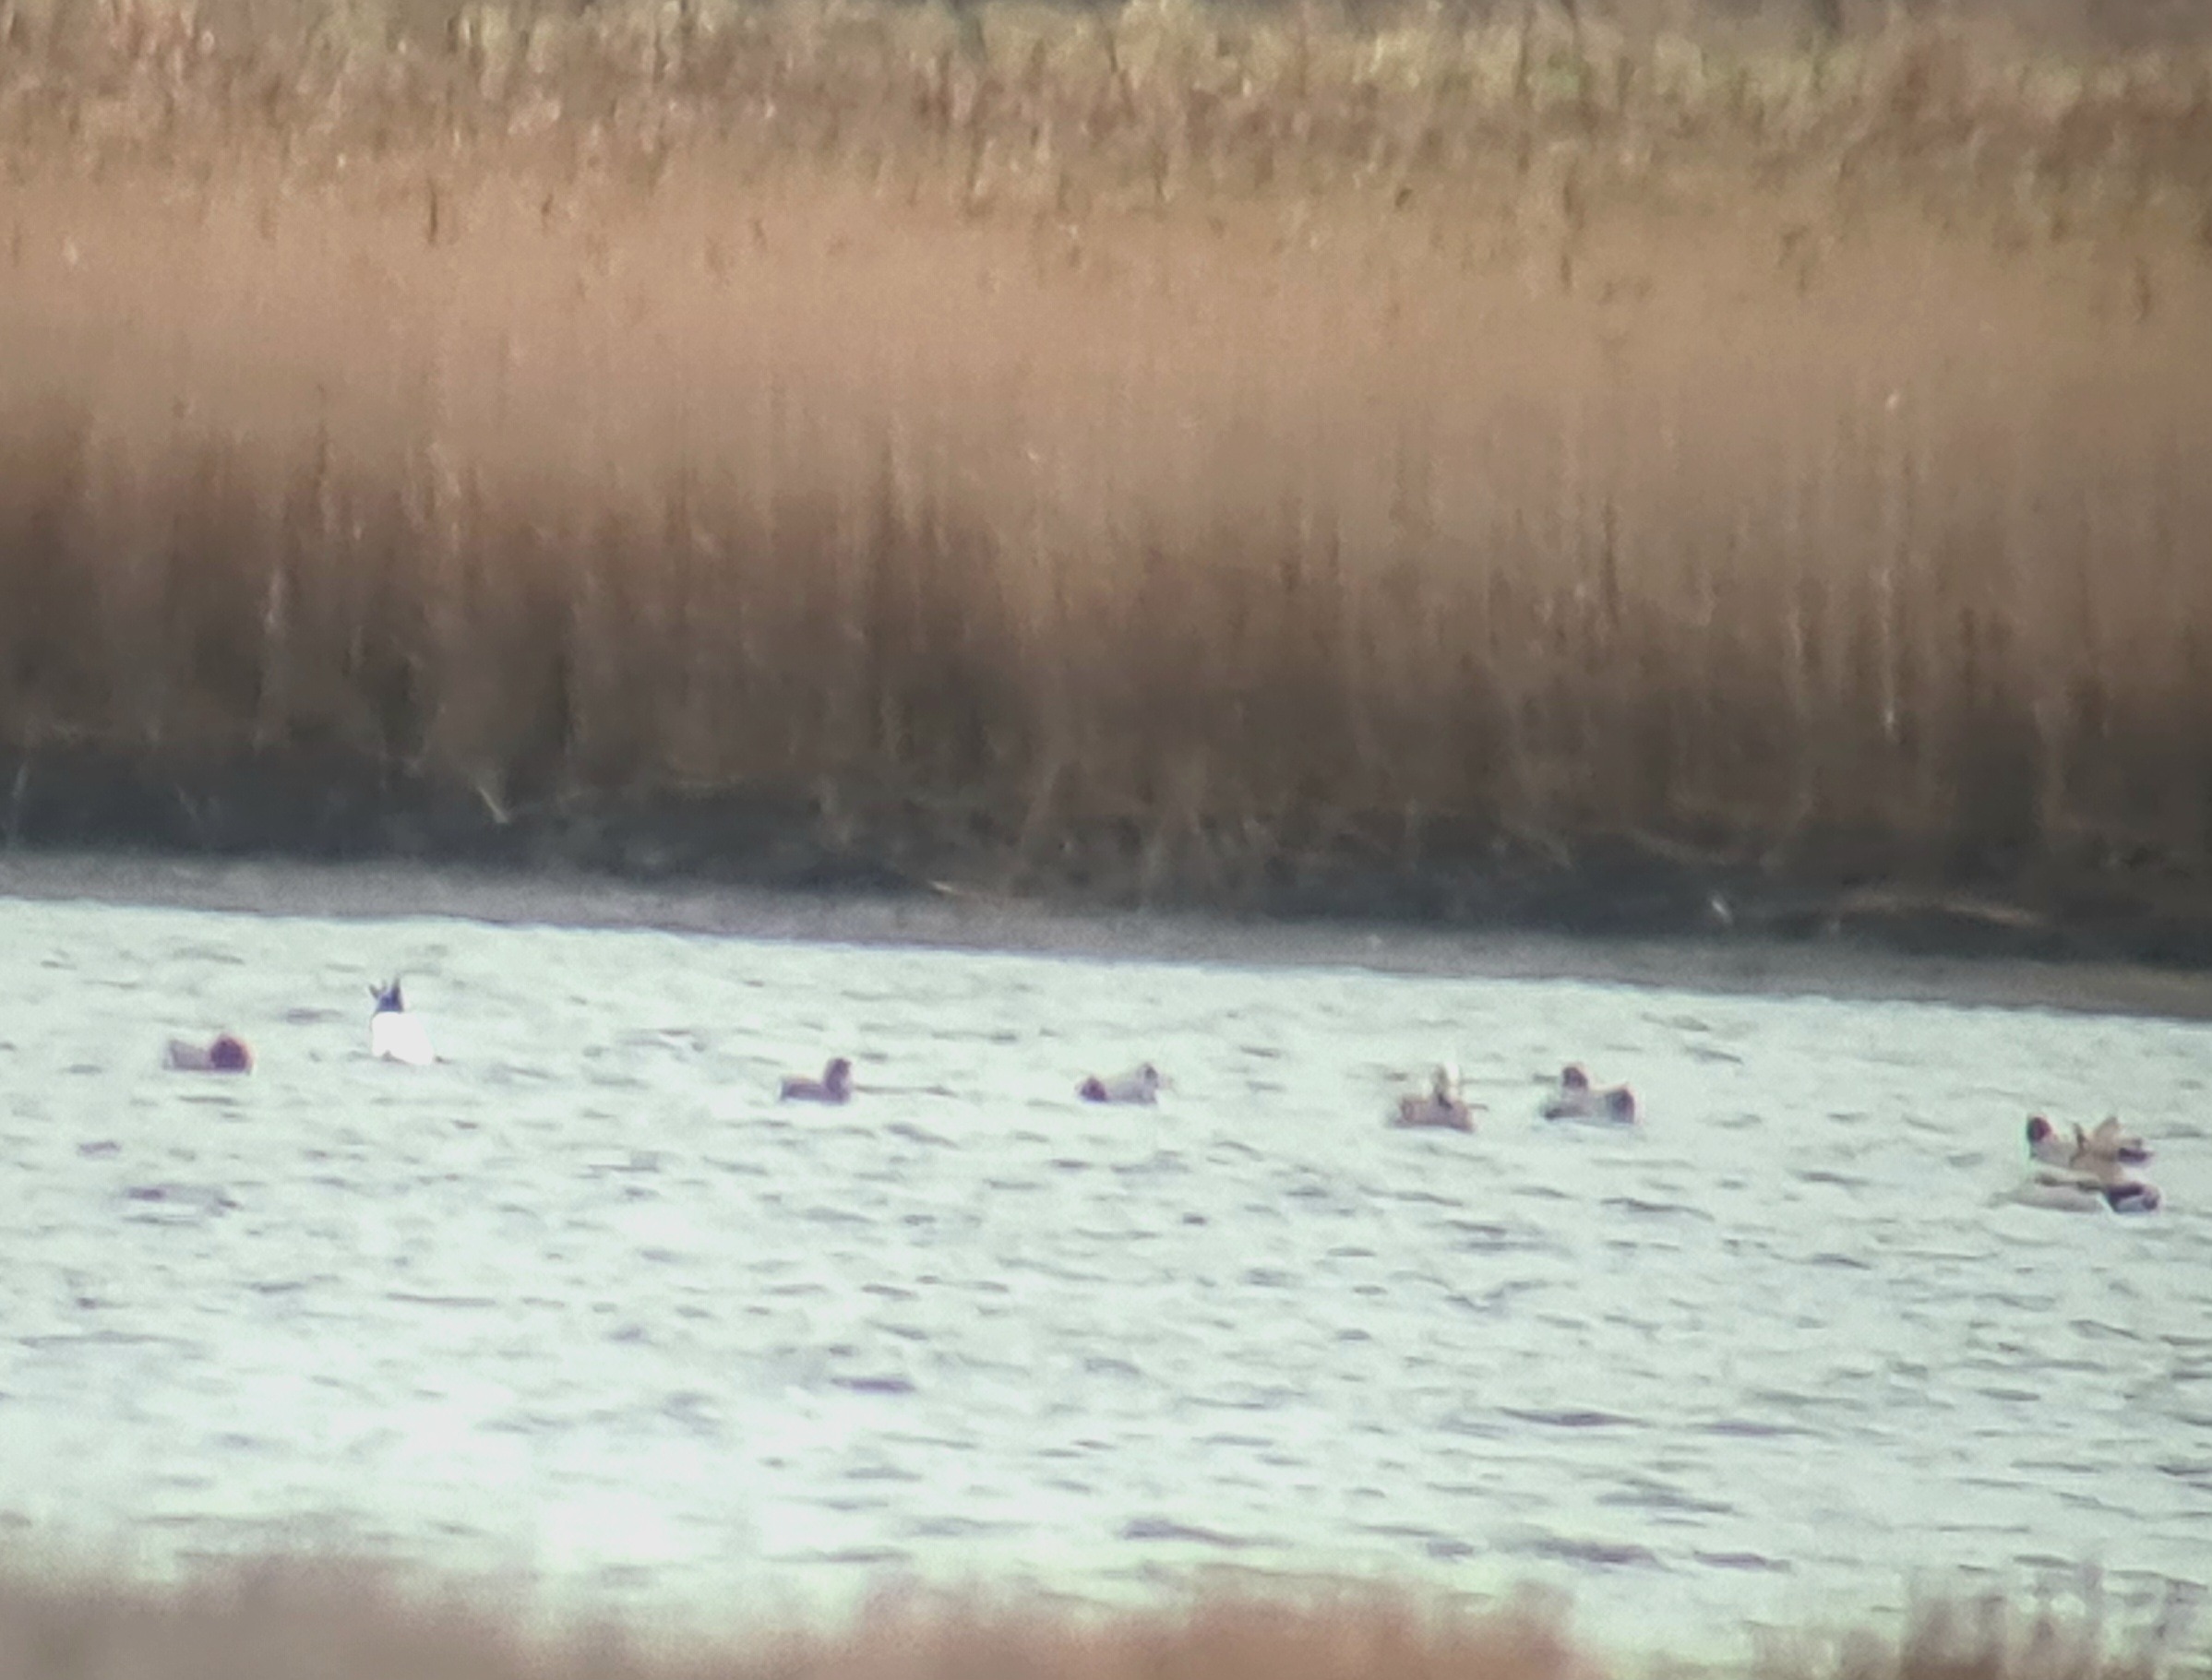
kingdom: Animalia
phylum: Chordata
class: Aves
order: Anseriformes
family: Anatidae
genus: Mareca
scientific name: Mareca americana
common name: Amerikansk pibeand
